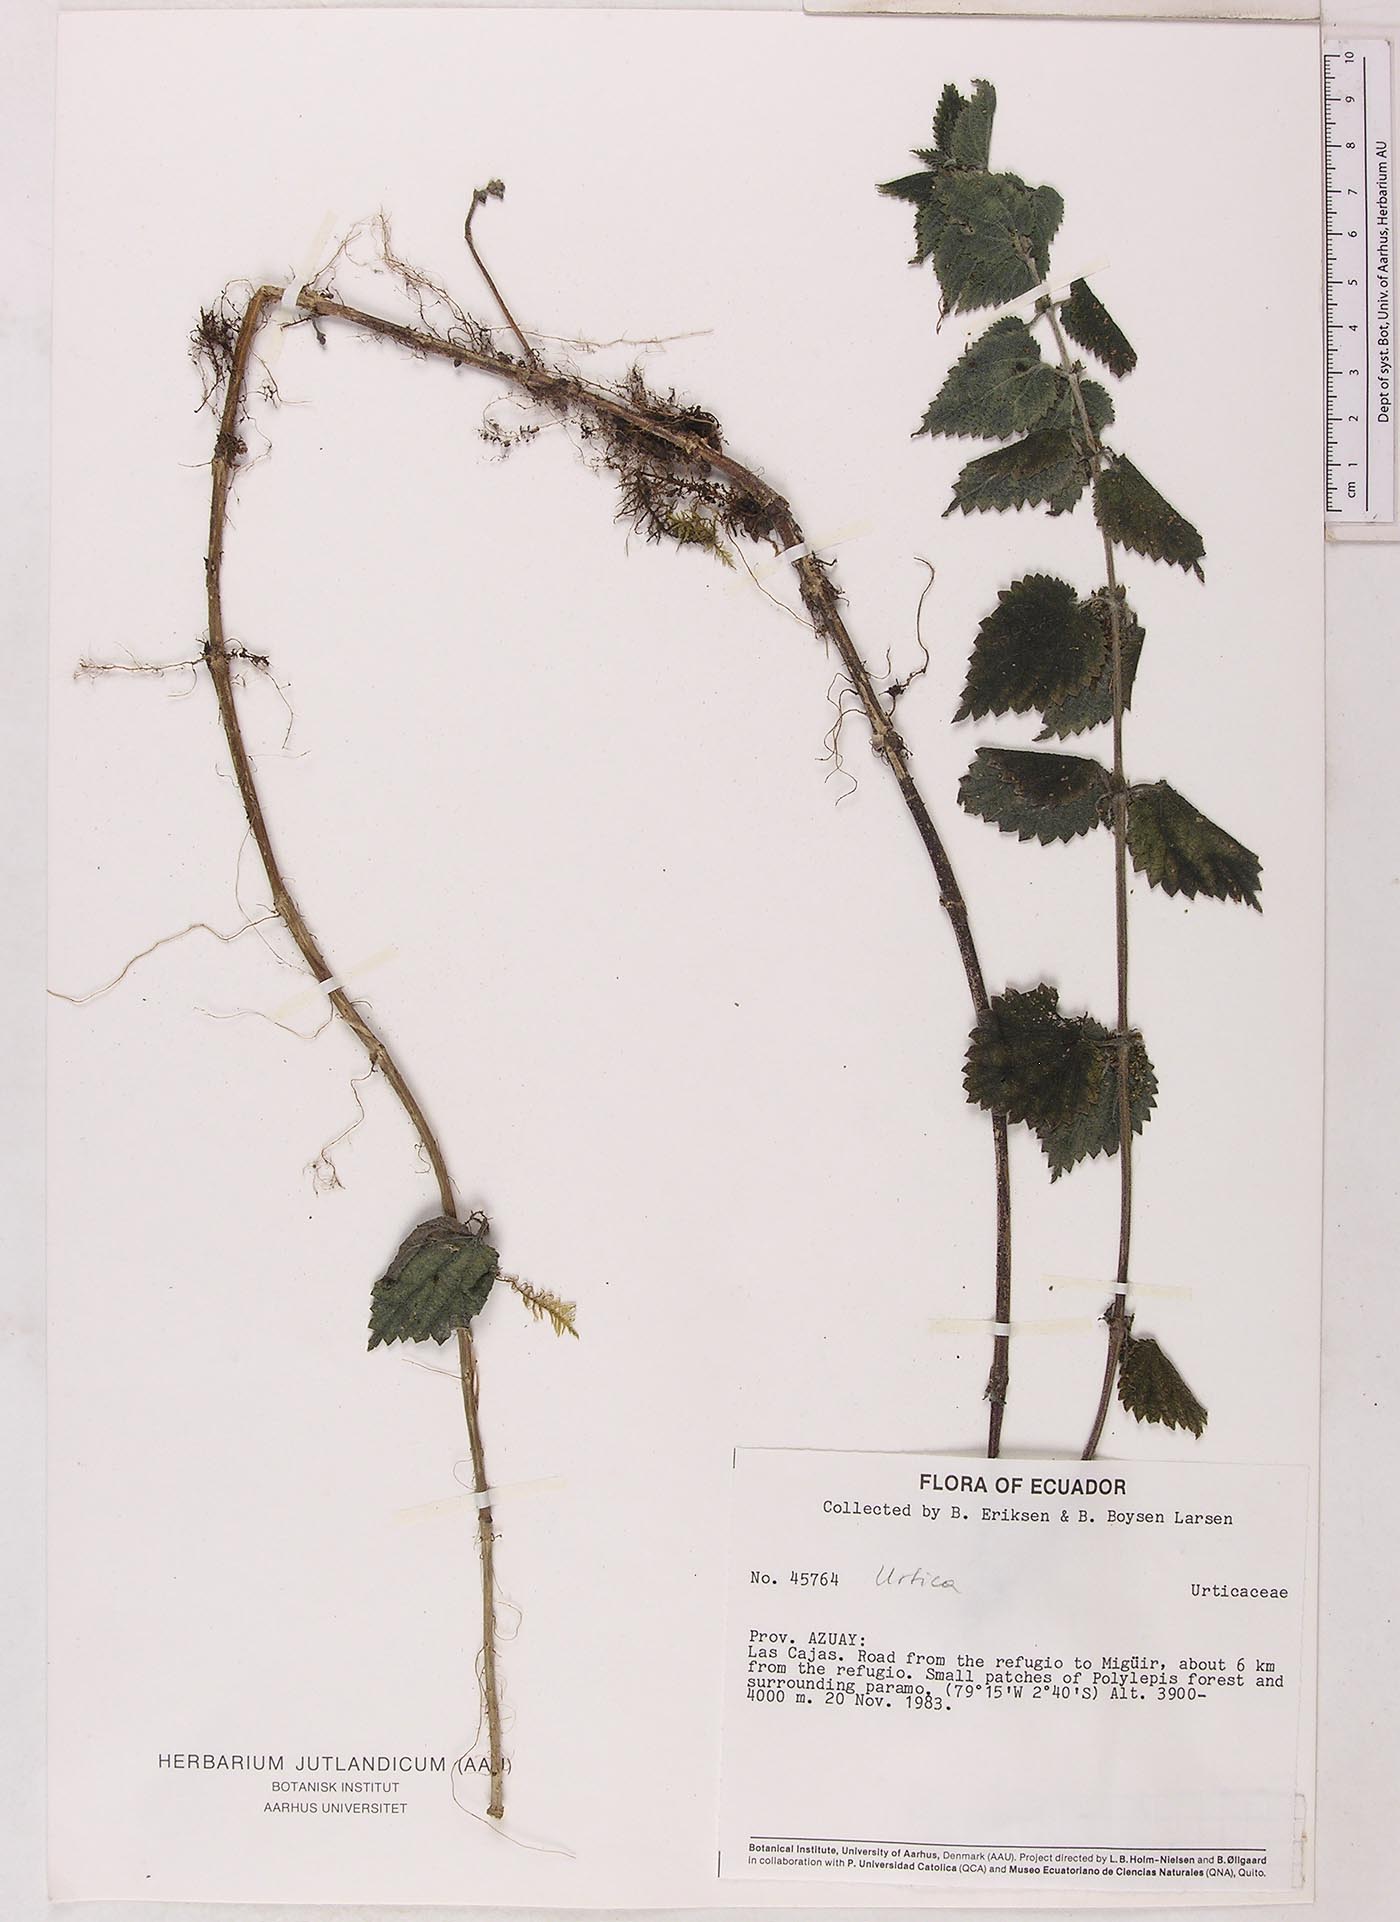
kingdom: Plantae
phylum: Tracheophyta
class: Magnoliopsida
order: Rosales
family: Urticaceae
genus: Urtica
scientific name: Urtica longispica
